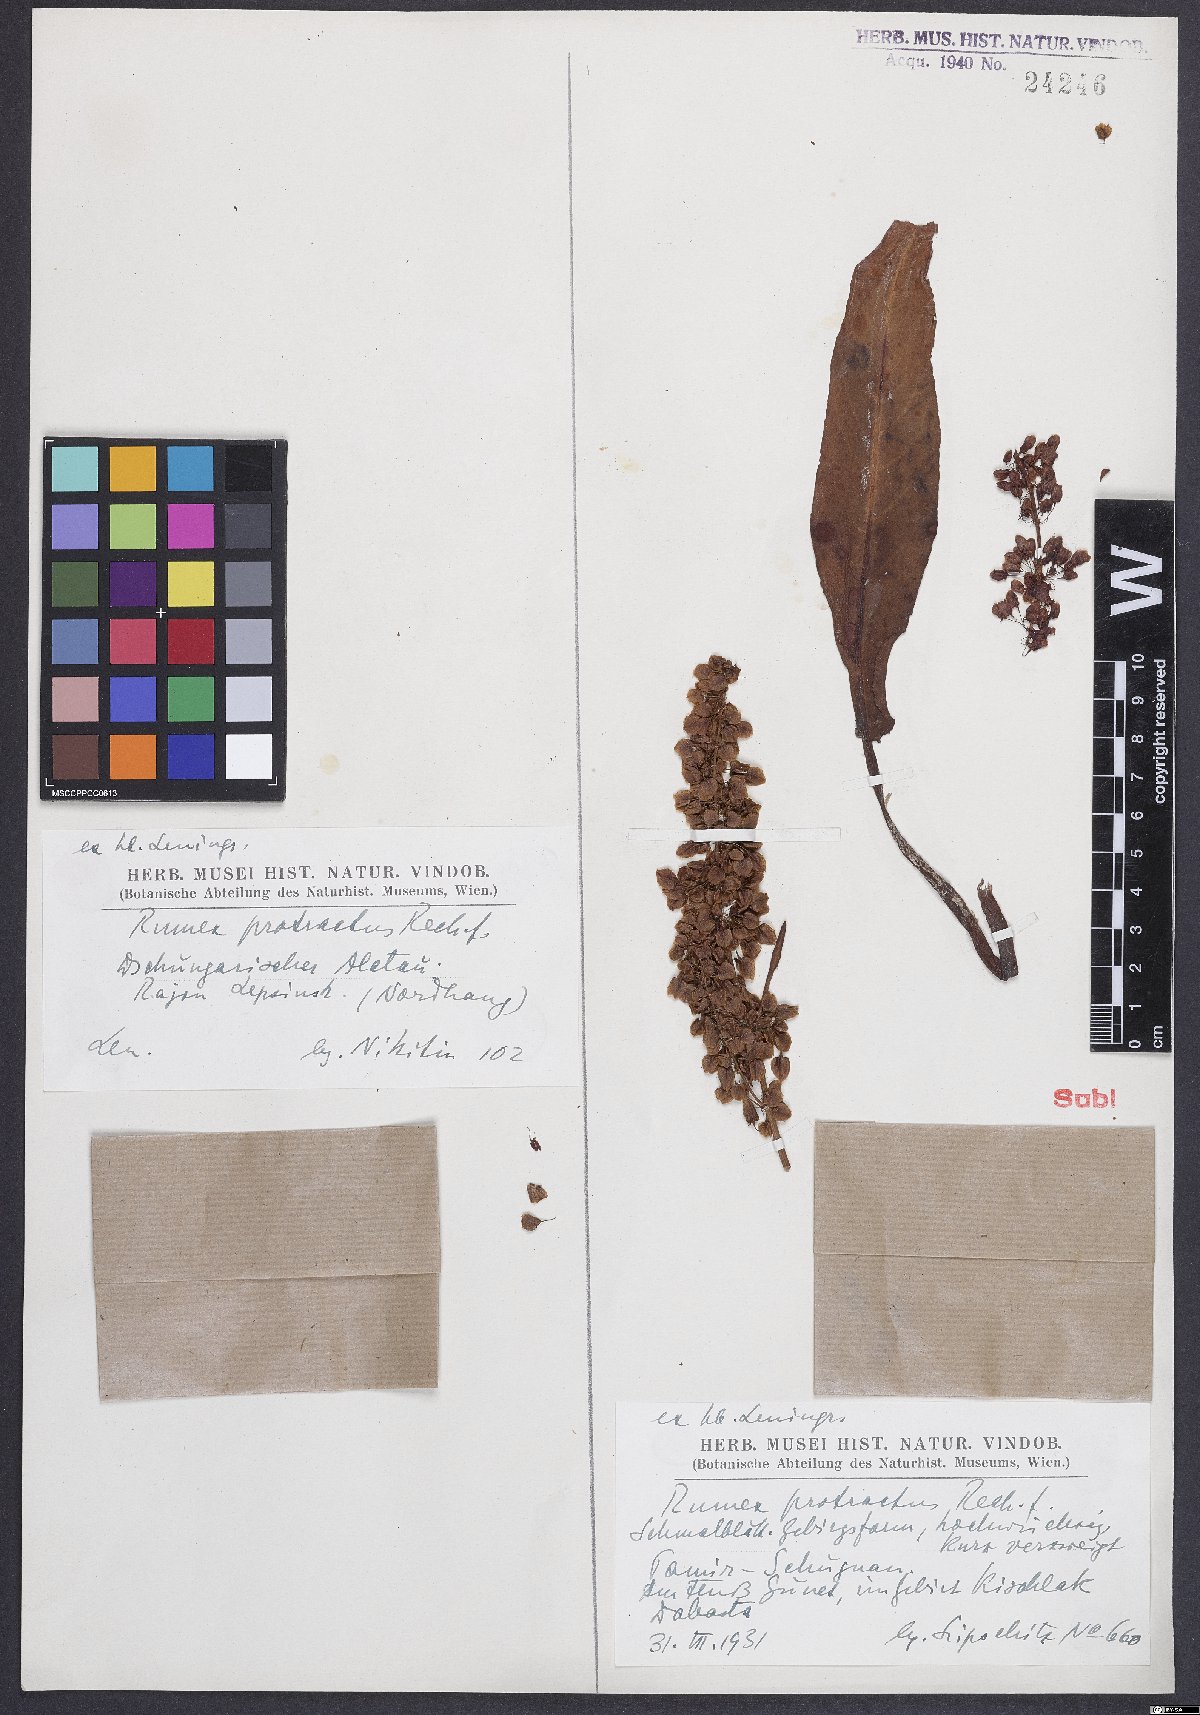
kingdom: Plantae
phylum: Tracheophyta
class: Magnoliopsida
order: Caryophyllales
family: Polygonaceae
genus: Rumex
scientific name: Rumex aquaticus
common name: Scottish dock
